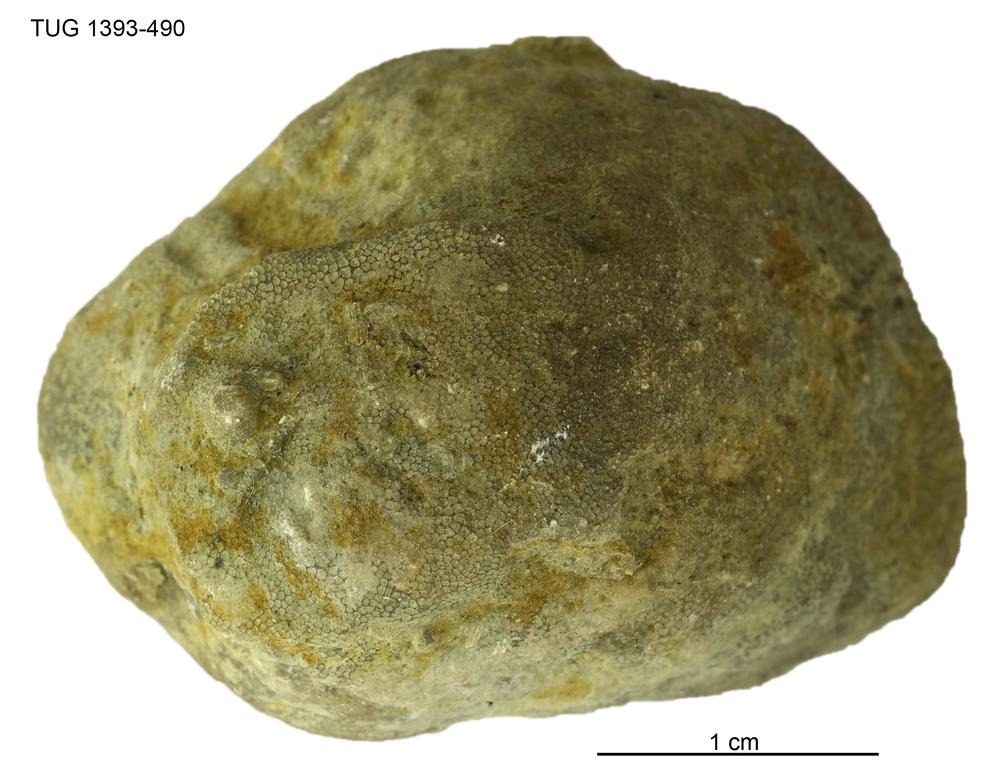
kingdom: Animalia
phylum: Bryozoa
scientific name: Bryozoa
